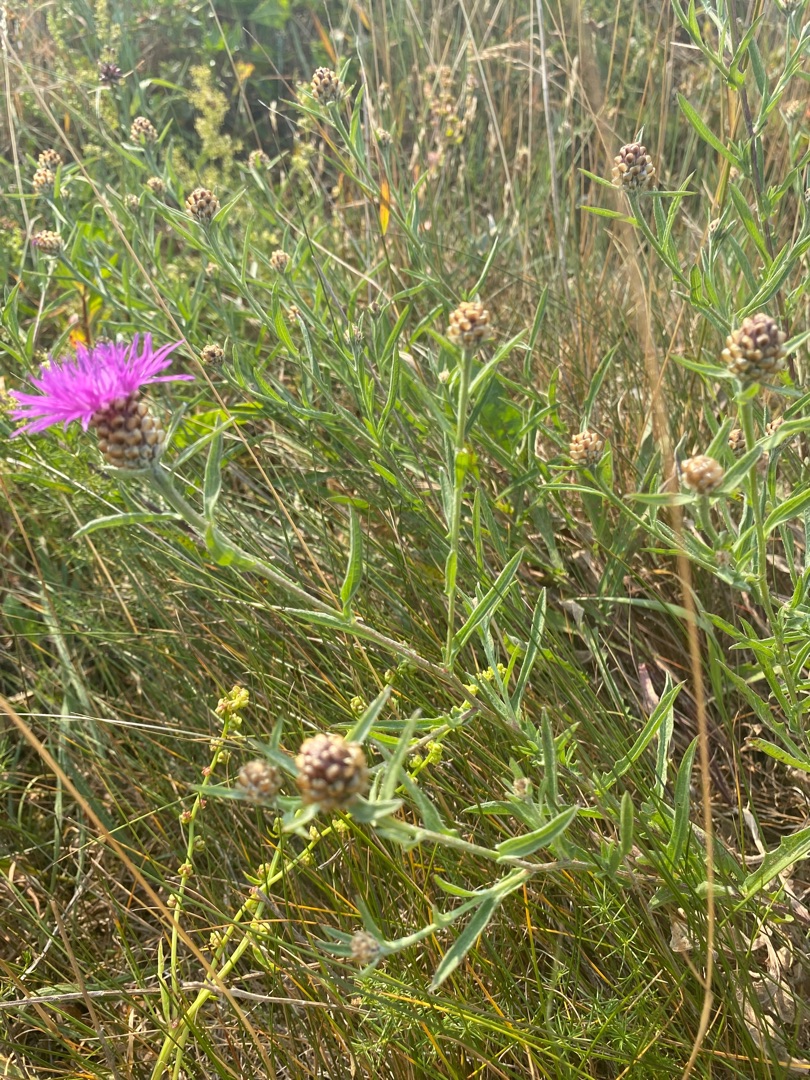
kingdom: Plantae
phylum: Tracheophyta
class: Magnoliopsida
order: Asterales
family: Asteraceae
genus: Centaurea
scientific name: Centaurea jacea
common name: Almindelig knopurt
